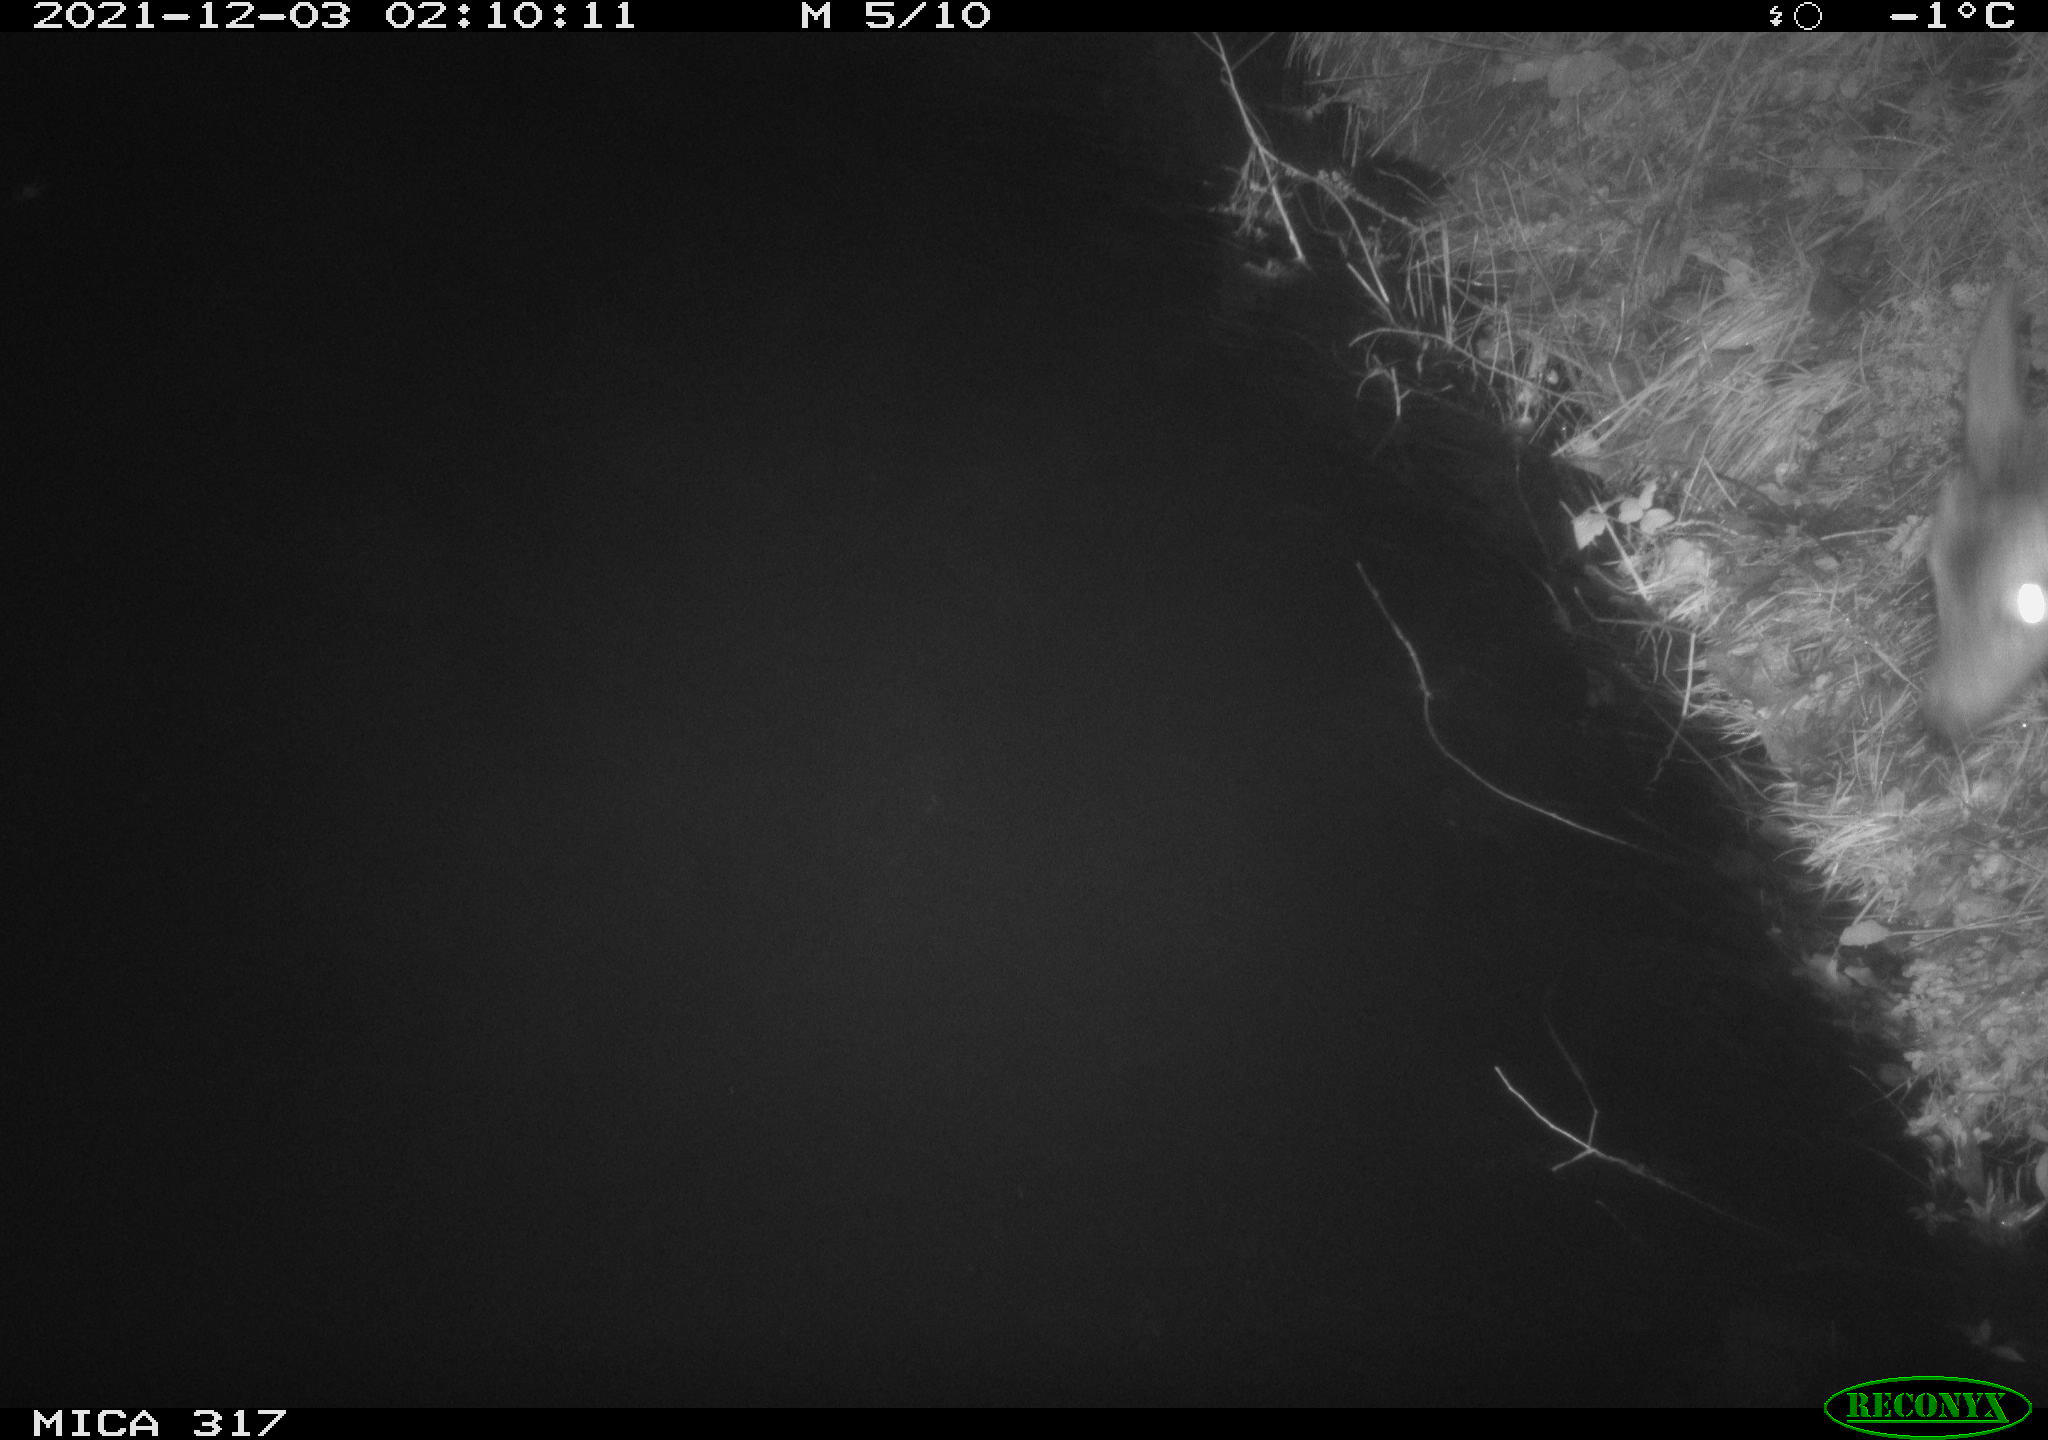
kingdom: Animalia
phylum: Chordata
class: Mammalia
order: Artiodactyla
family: Cervidae
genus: Capreolus
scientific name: Capreolus capreolus
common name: Western roe deer
